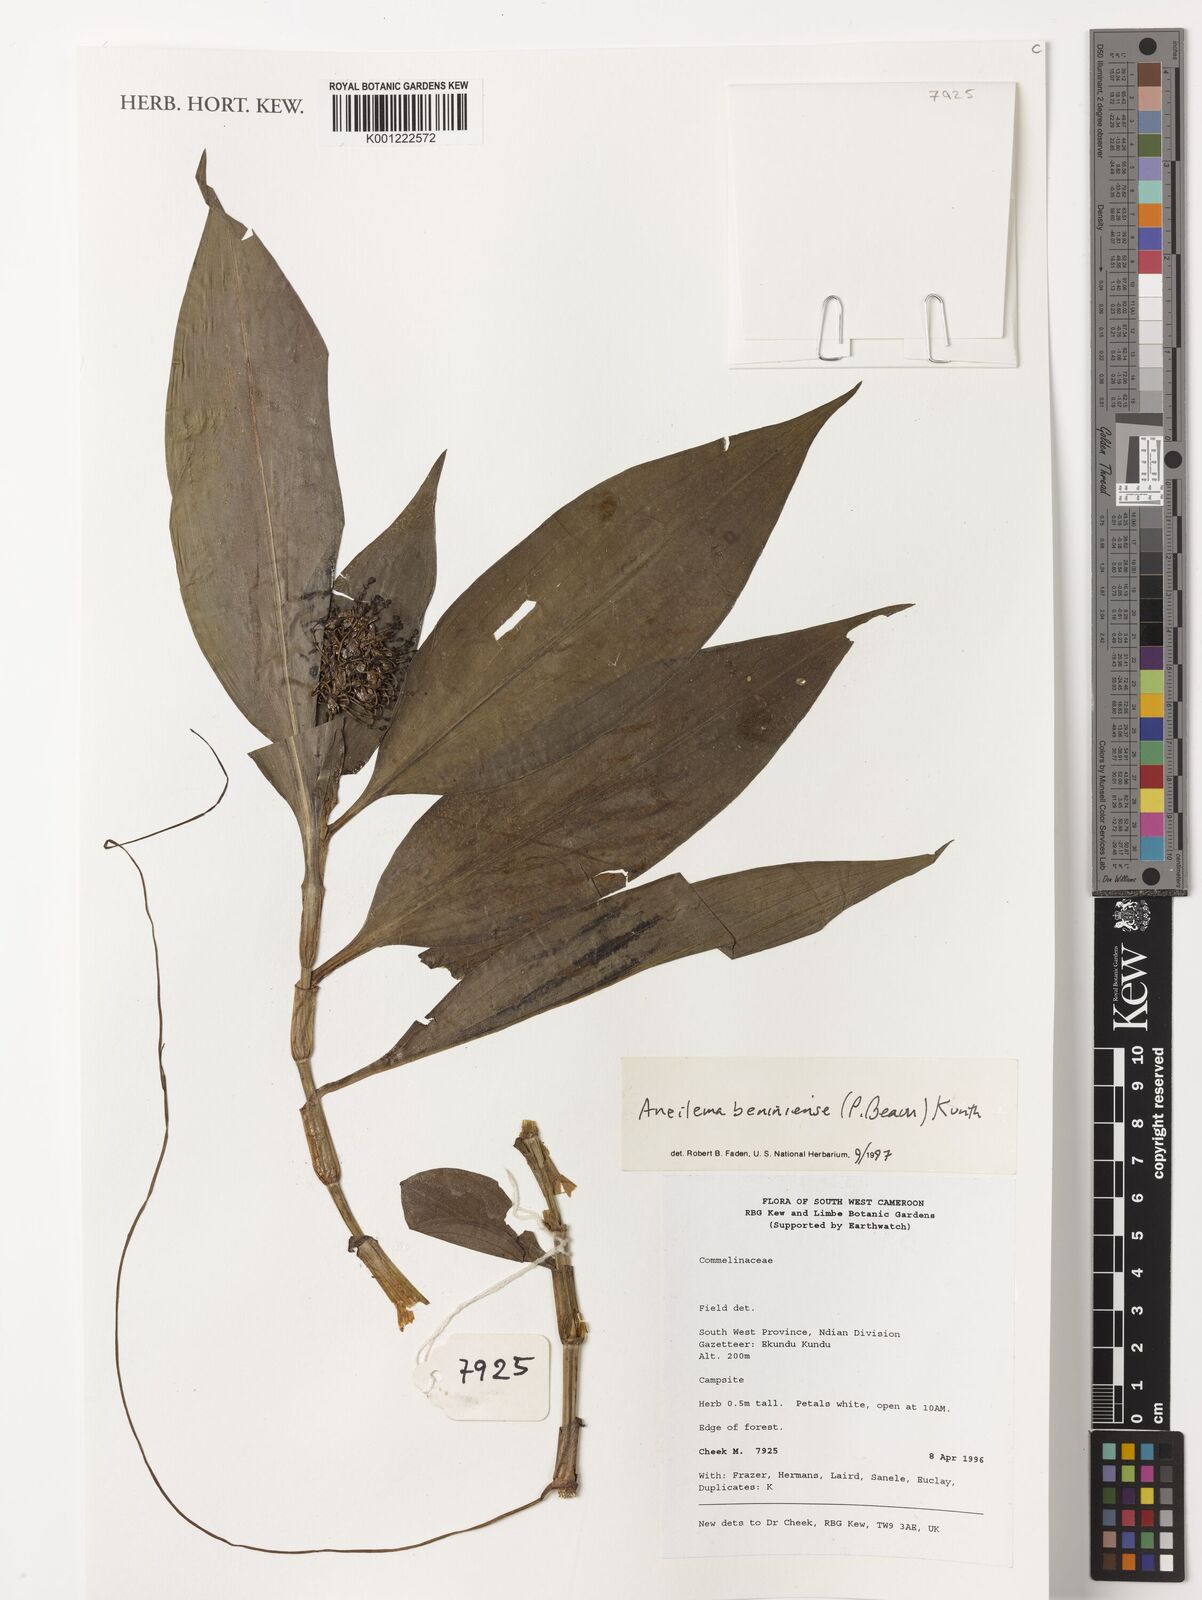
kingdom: Plantae
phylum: Tracheophyta
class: Liliopsida
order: Commelinales
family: Commelinaceae
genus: Aneilema
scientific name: Aneilema beniniense
